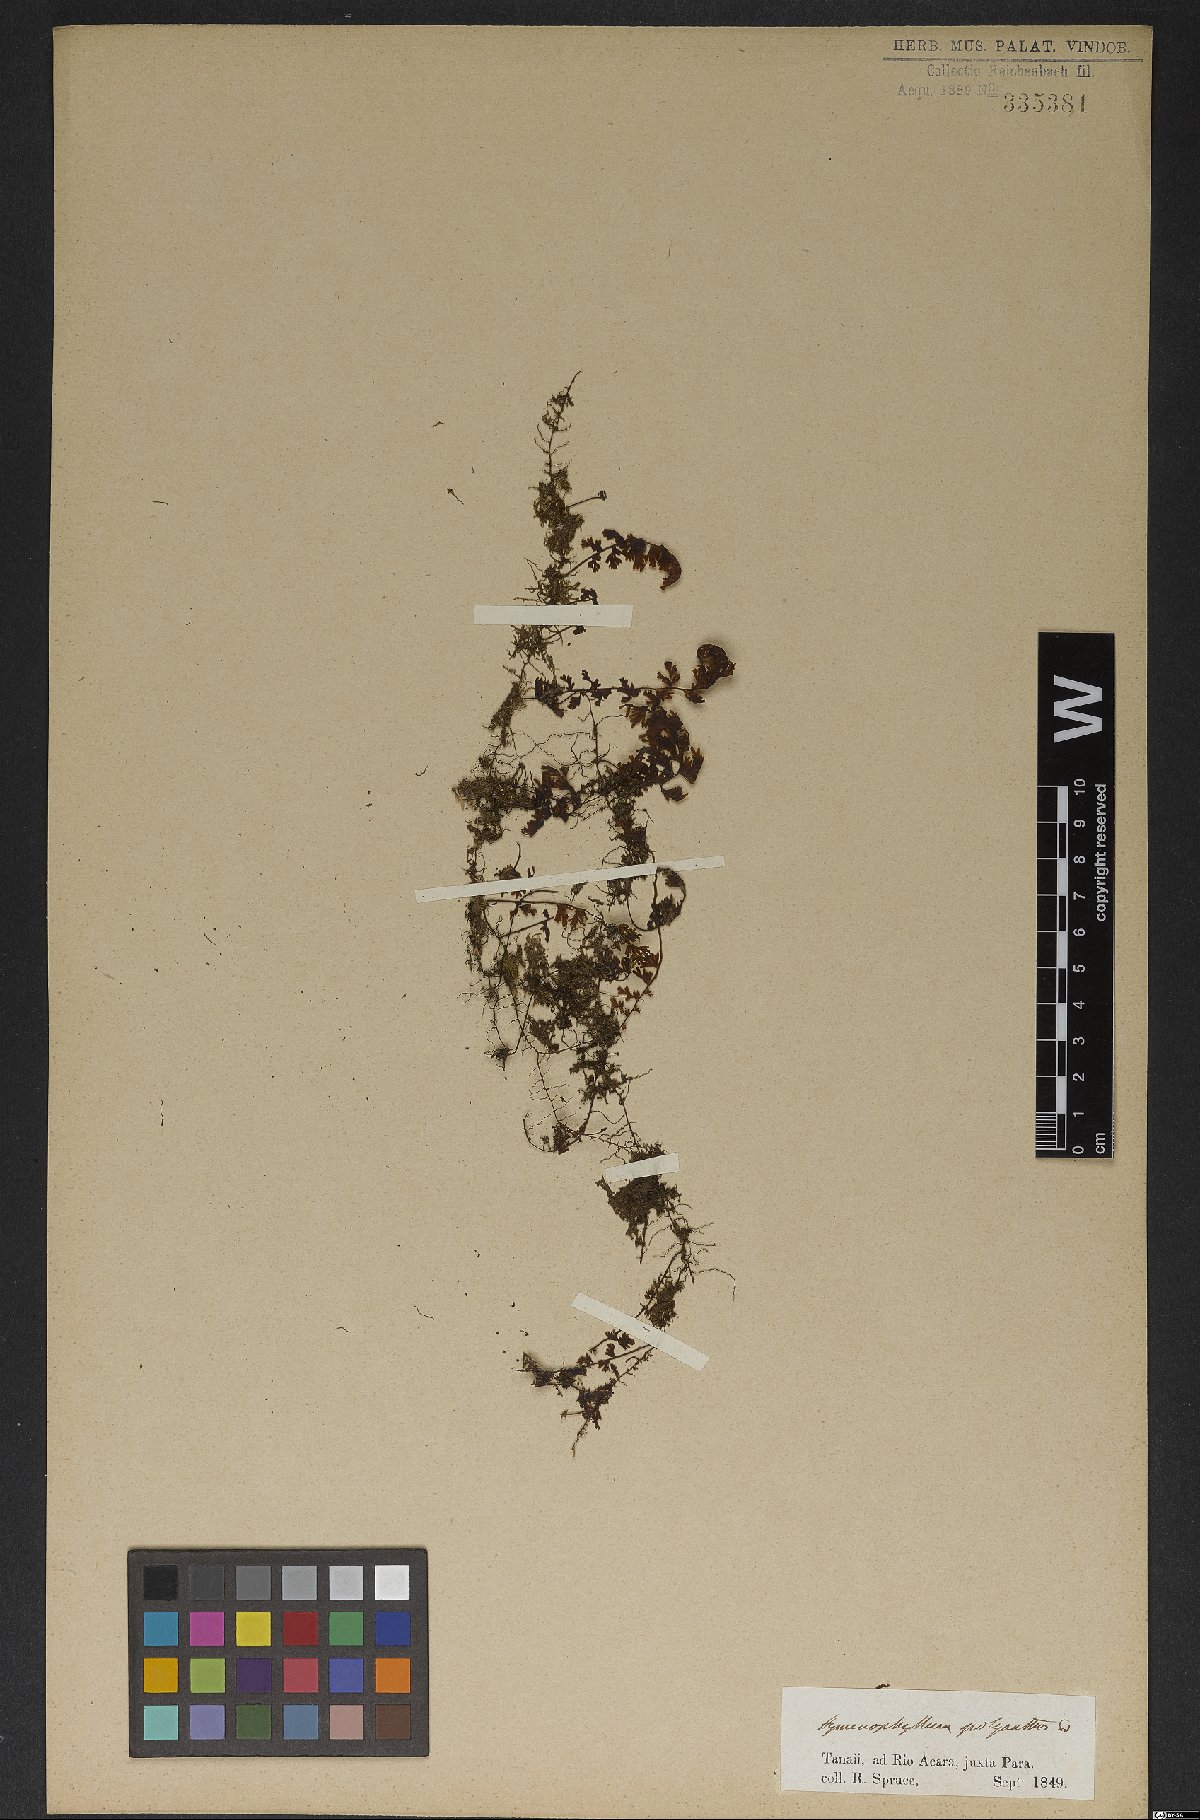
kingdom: Plantae
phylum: Tracheophyta
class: Polypodiopsida
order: Hymenophyllales
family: Hymenophyllaceae
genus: Hymenophyllum
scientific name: Hymenophyllum polyanthos
